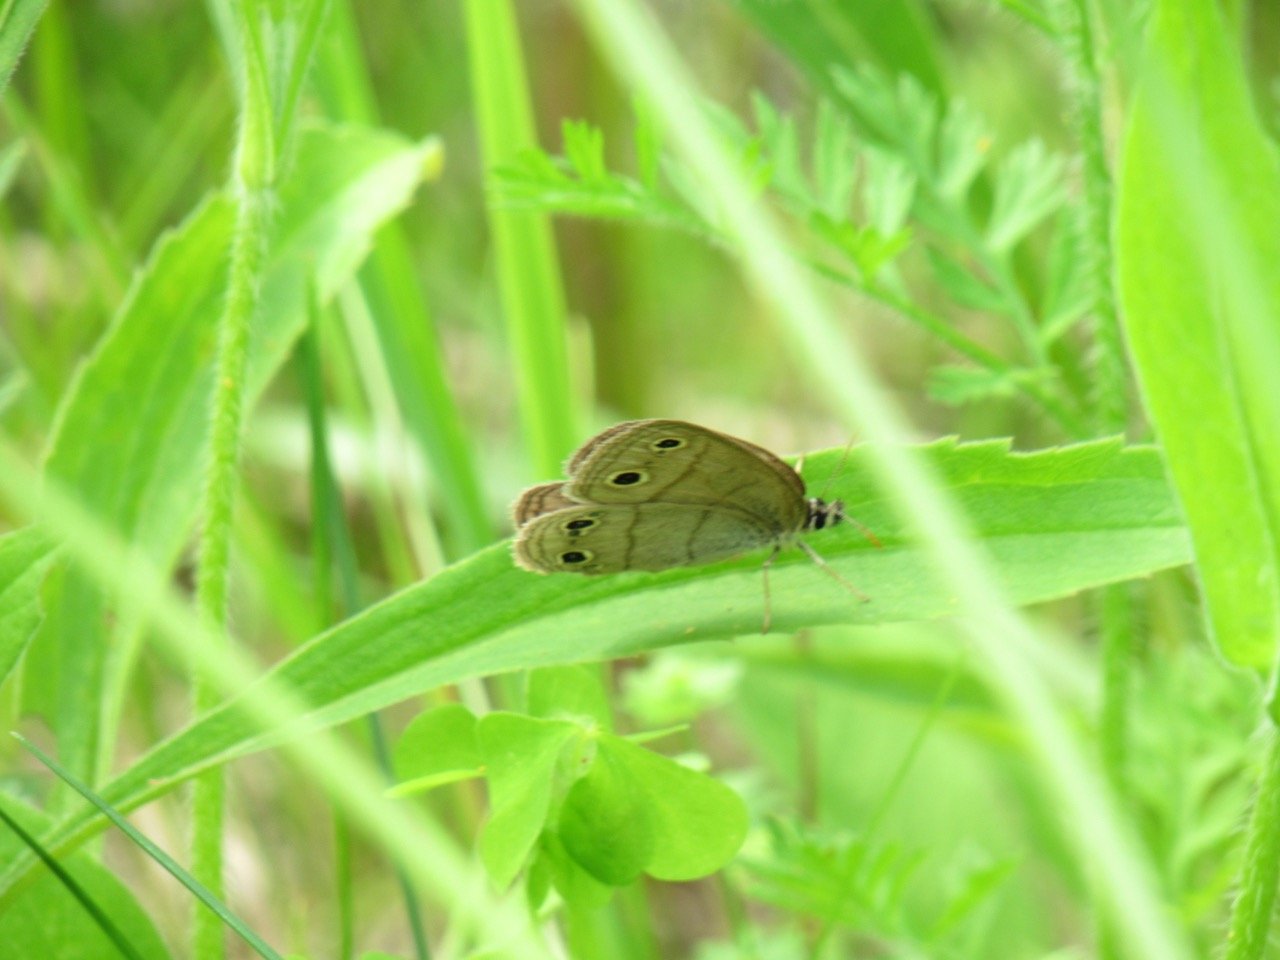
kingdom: Animalia
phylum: Arthropoda
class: Insecta
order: Lepidoptera
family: Nymphalidae
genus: Euptychia
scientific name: Euptychia cymela
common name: Little Wood Satyr
